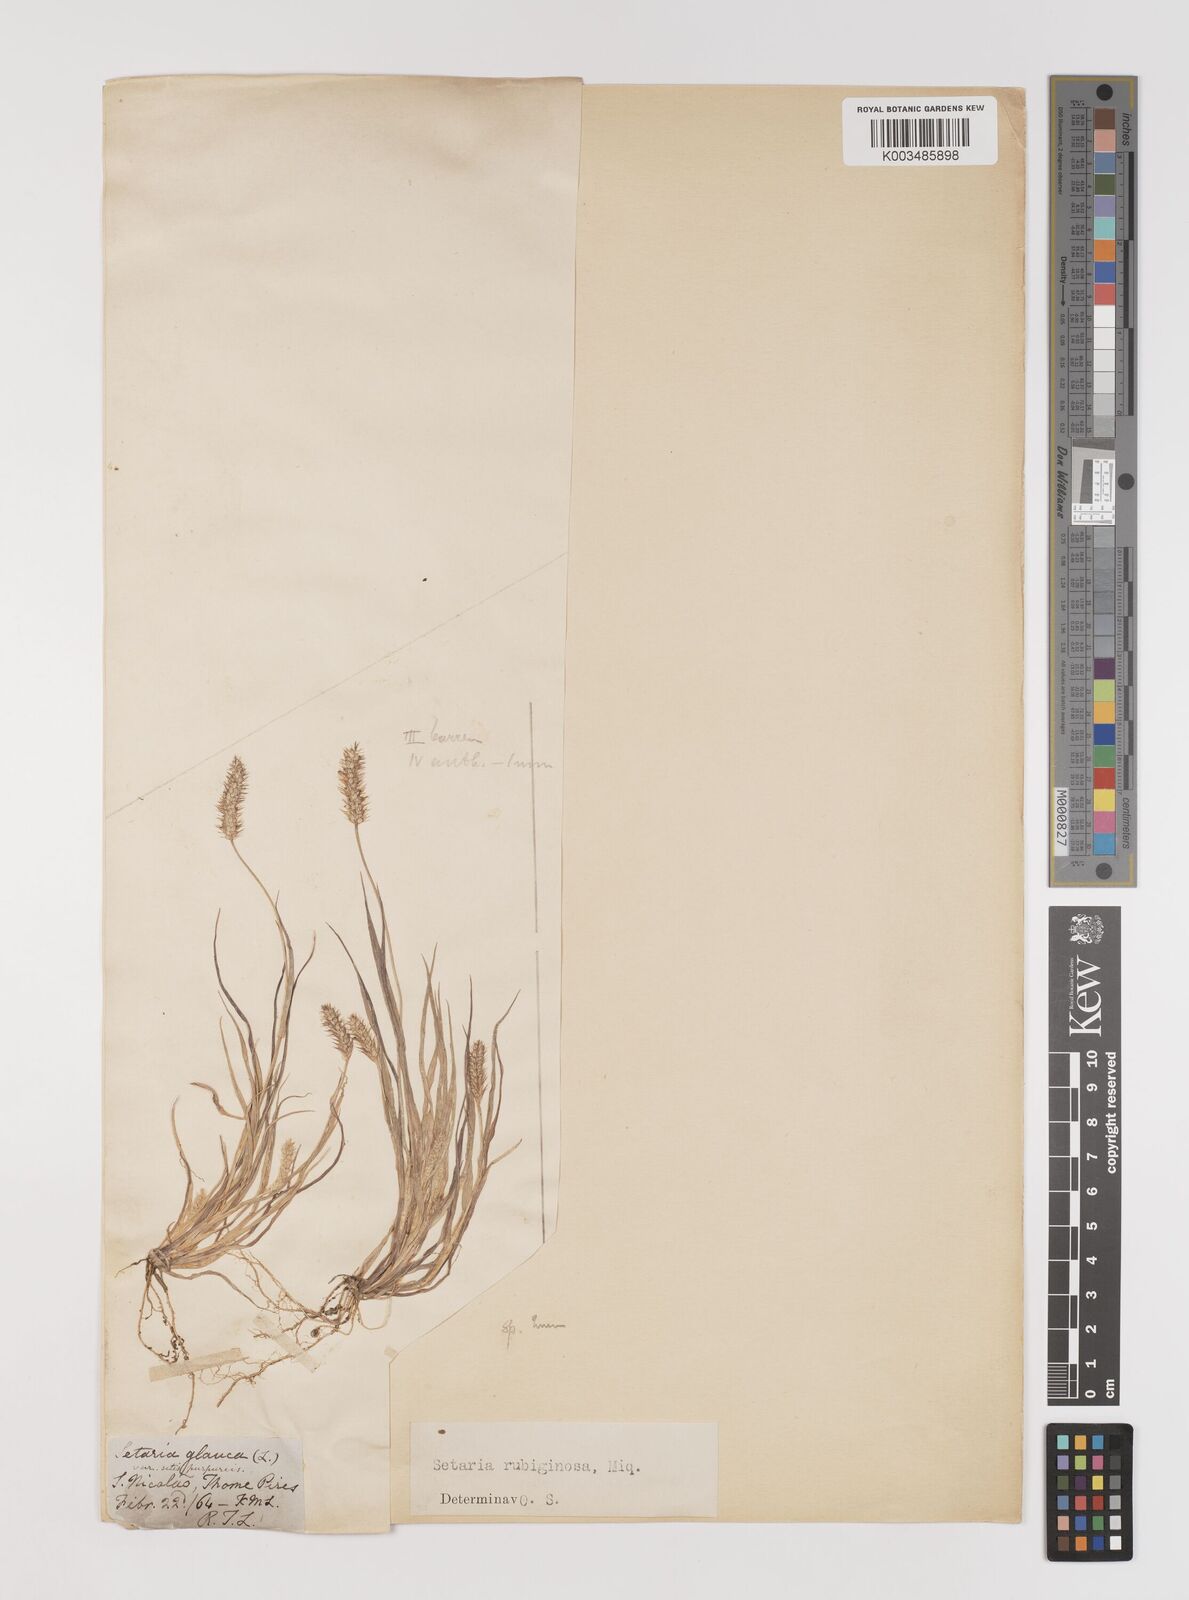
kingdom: Plantae
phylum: Tracheophyta
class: Liliopsida
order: Poales
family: Poaceae
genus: Setaria
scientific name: Setaria pumila
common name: Yellow bristle-grass
